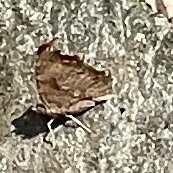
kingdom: Animalia
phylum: Arthropoda
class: Insecta
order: Lepidoptera
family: Nymphalidae
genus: Polygonia
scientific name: Polygonia comma
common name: Eastern Comma
